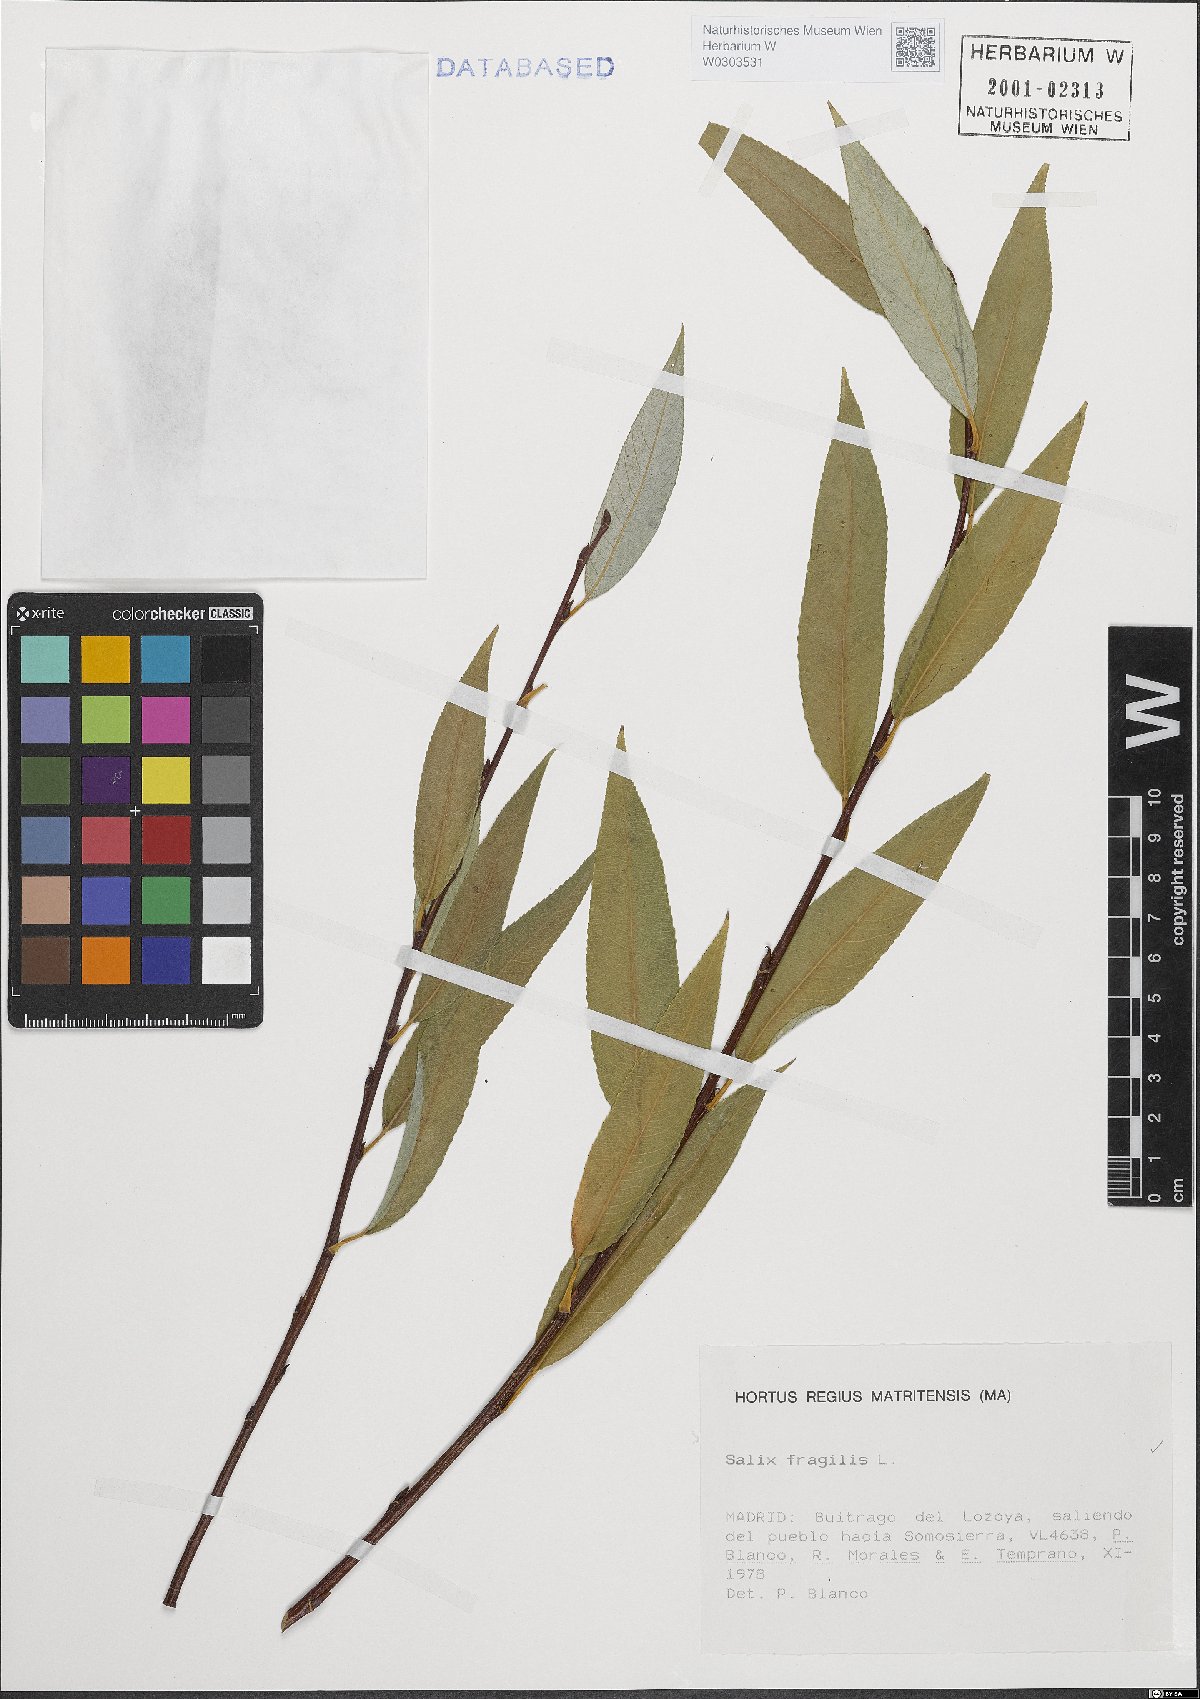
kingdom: Plantae
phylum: Tracheophyta
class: Magnoliopsida
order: Malpighiales
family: Salicaceae
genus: Salix
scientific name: Salix fragilis
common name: Crack willow
